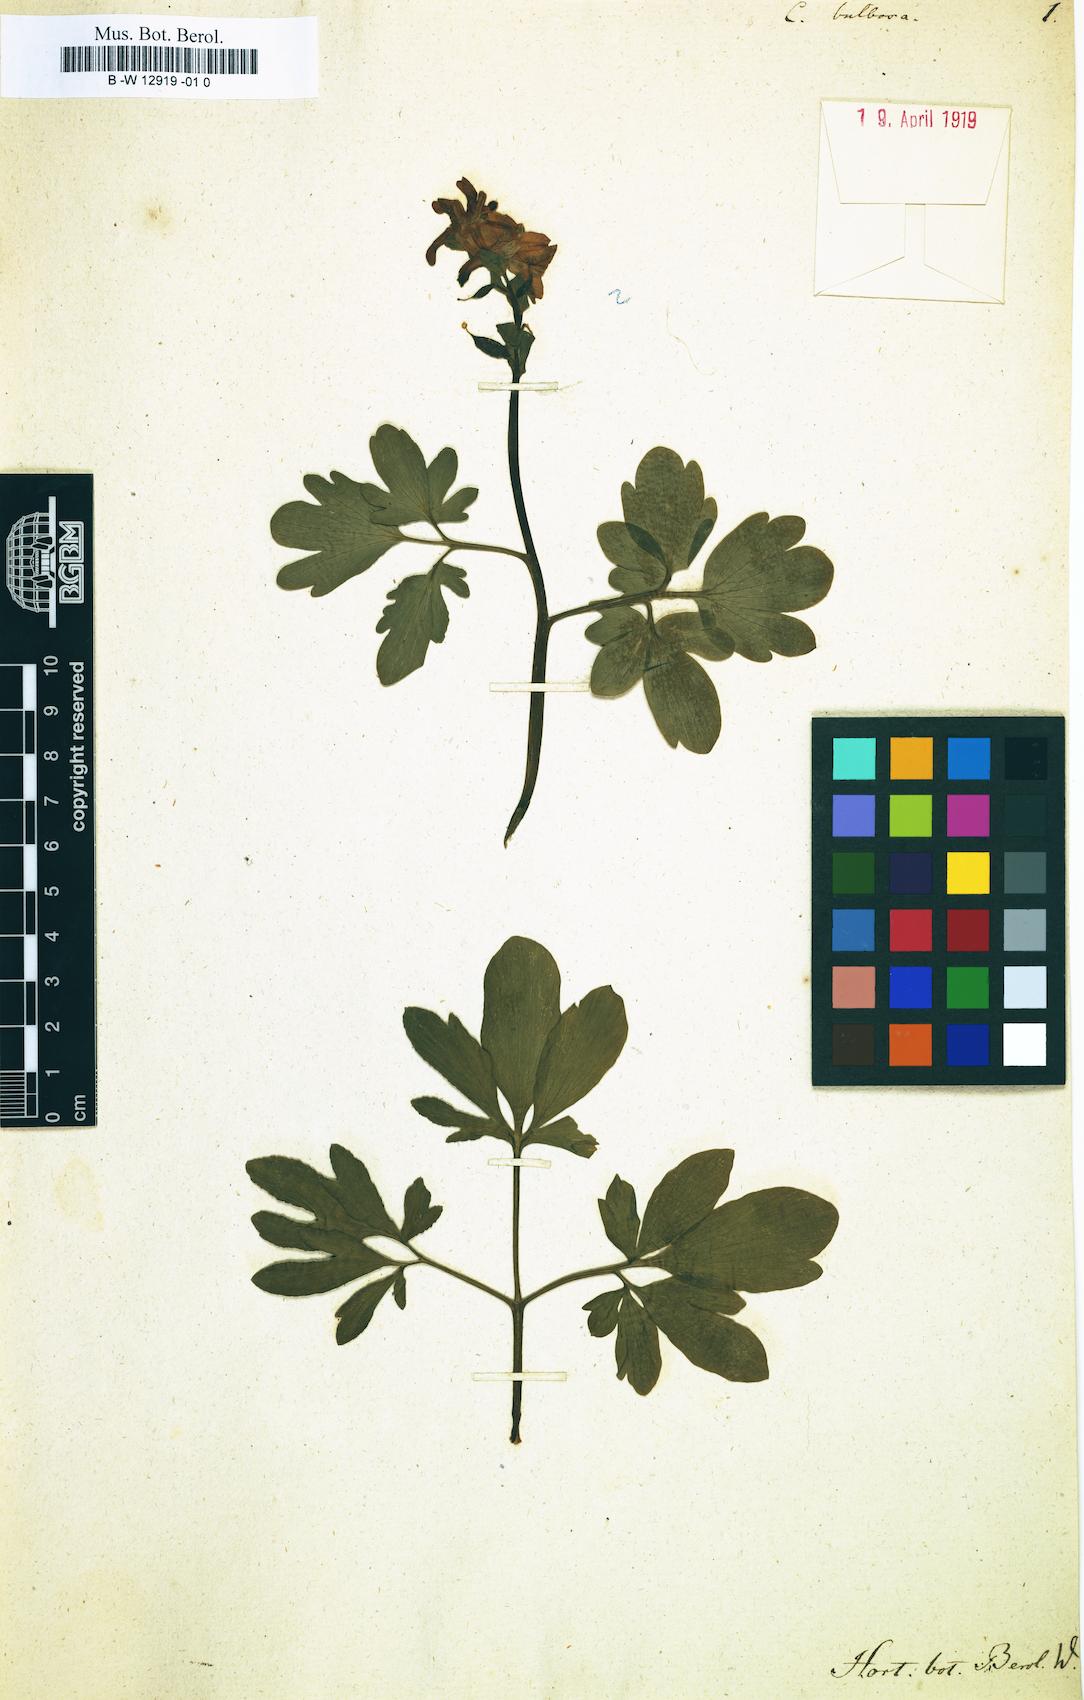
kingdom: Plantae
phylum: Tracheophyta
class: Magnoliopsida
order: Ranunculales
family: Papaveraceae
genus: Corydalis
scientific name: Corydalis
